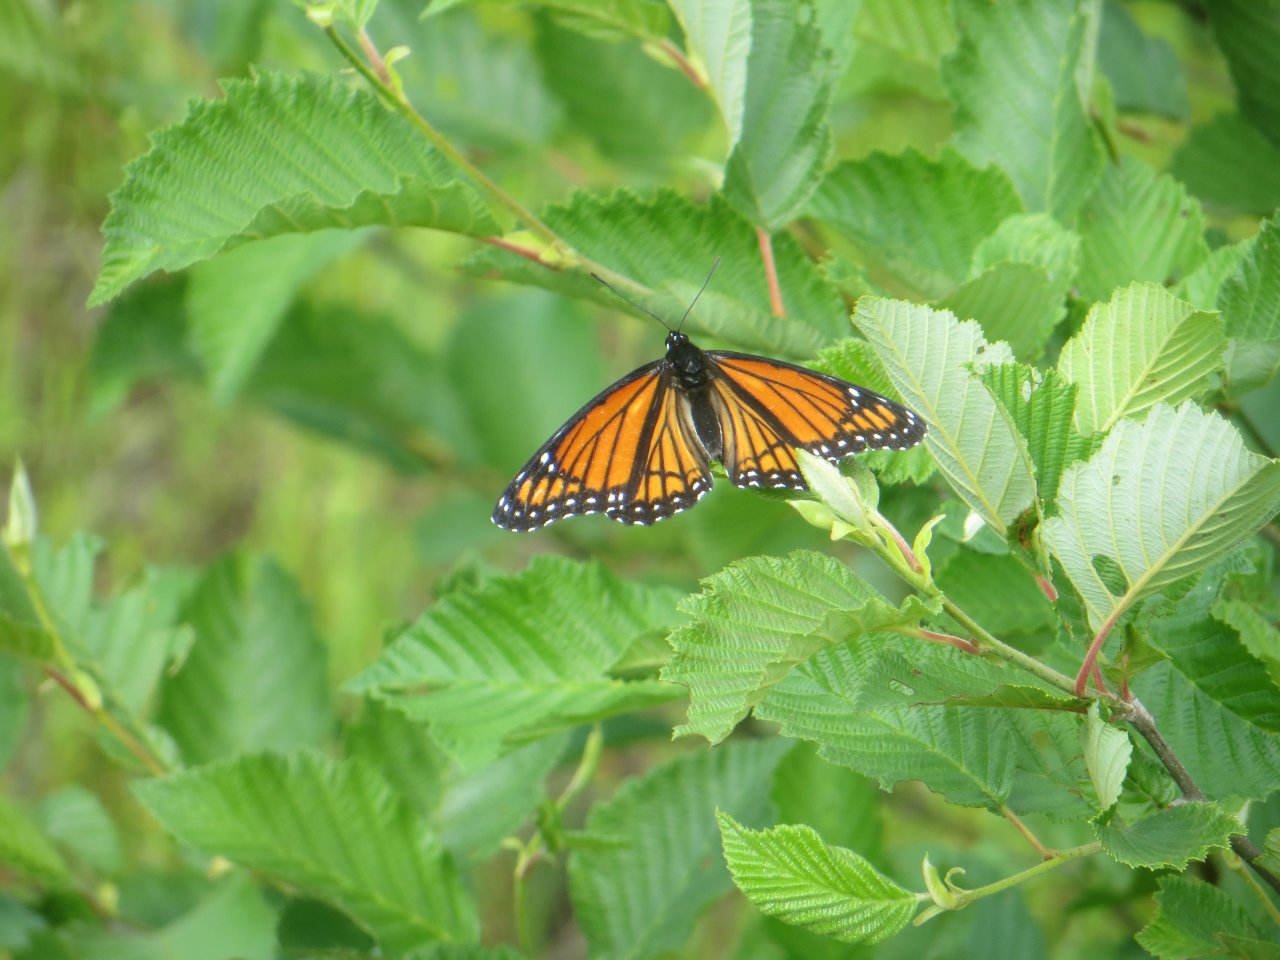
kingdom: Animalia
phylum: Arthropoda
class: Insecta
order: Lepidoptera
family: Nymphalidae
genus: Limenitis
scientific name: Limenitis archippus
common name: Viceroy
